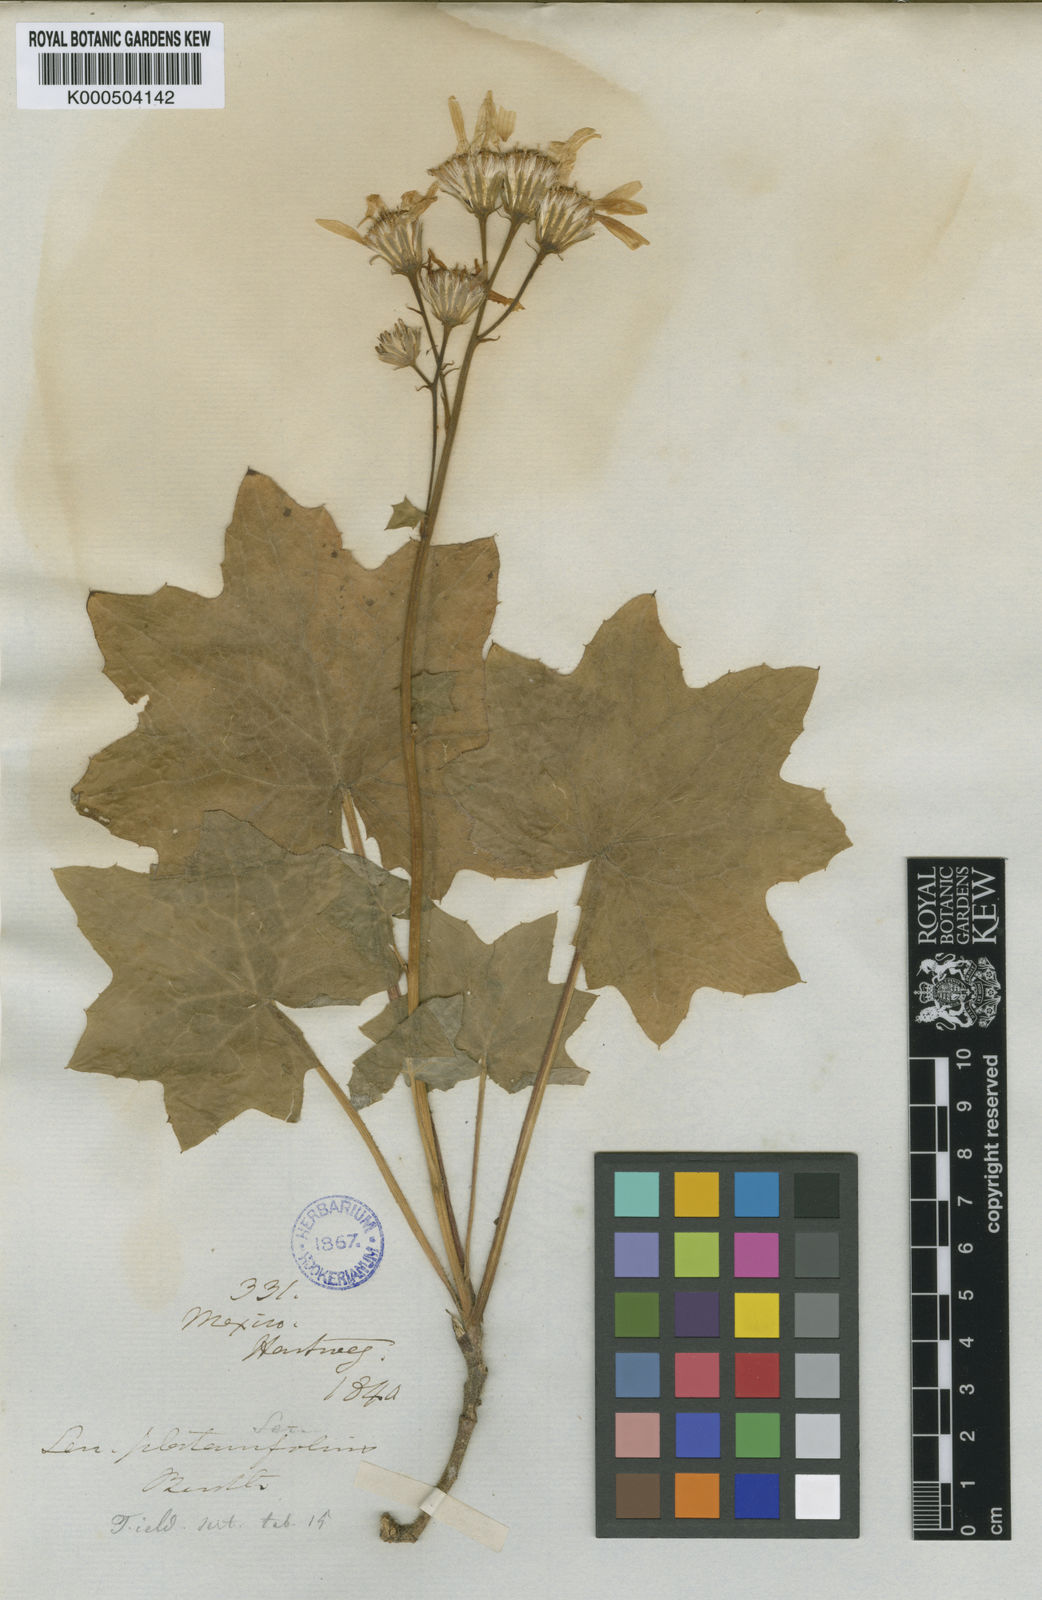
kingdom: Plantae
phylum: Tracheophyta
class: Magnoliopsida
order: Asterales
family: Asteraceae
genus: Roldana
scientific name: Roldana
